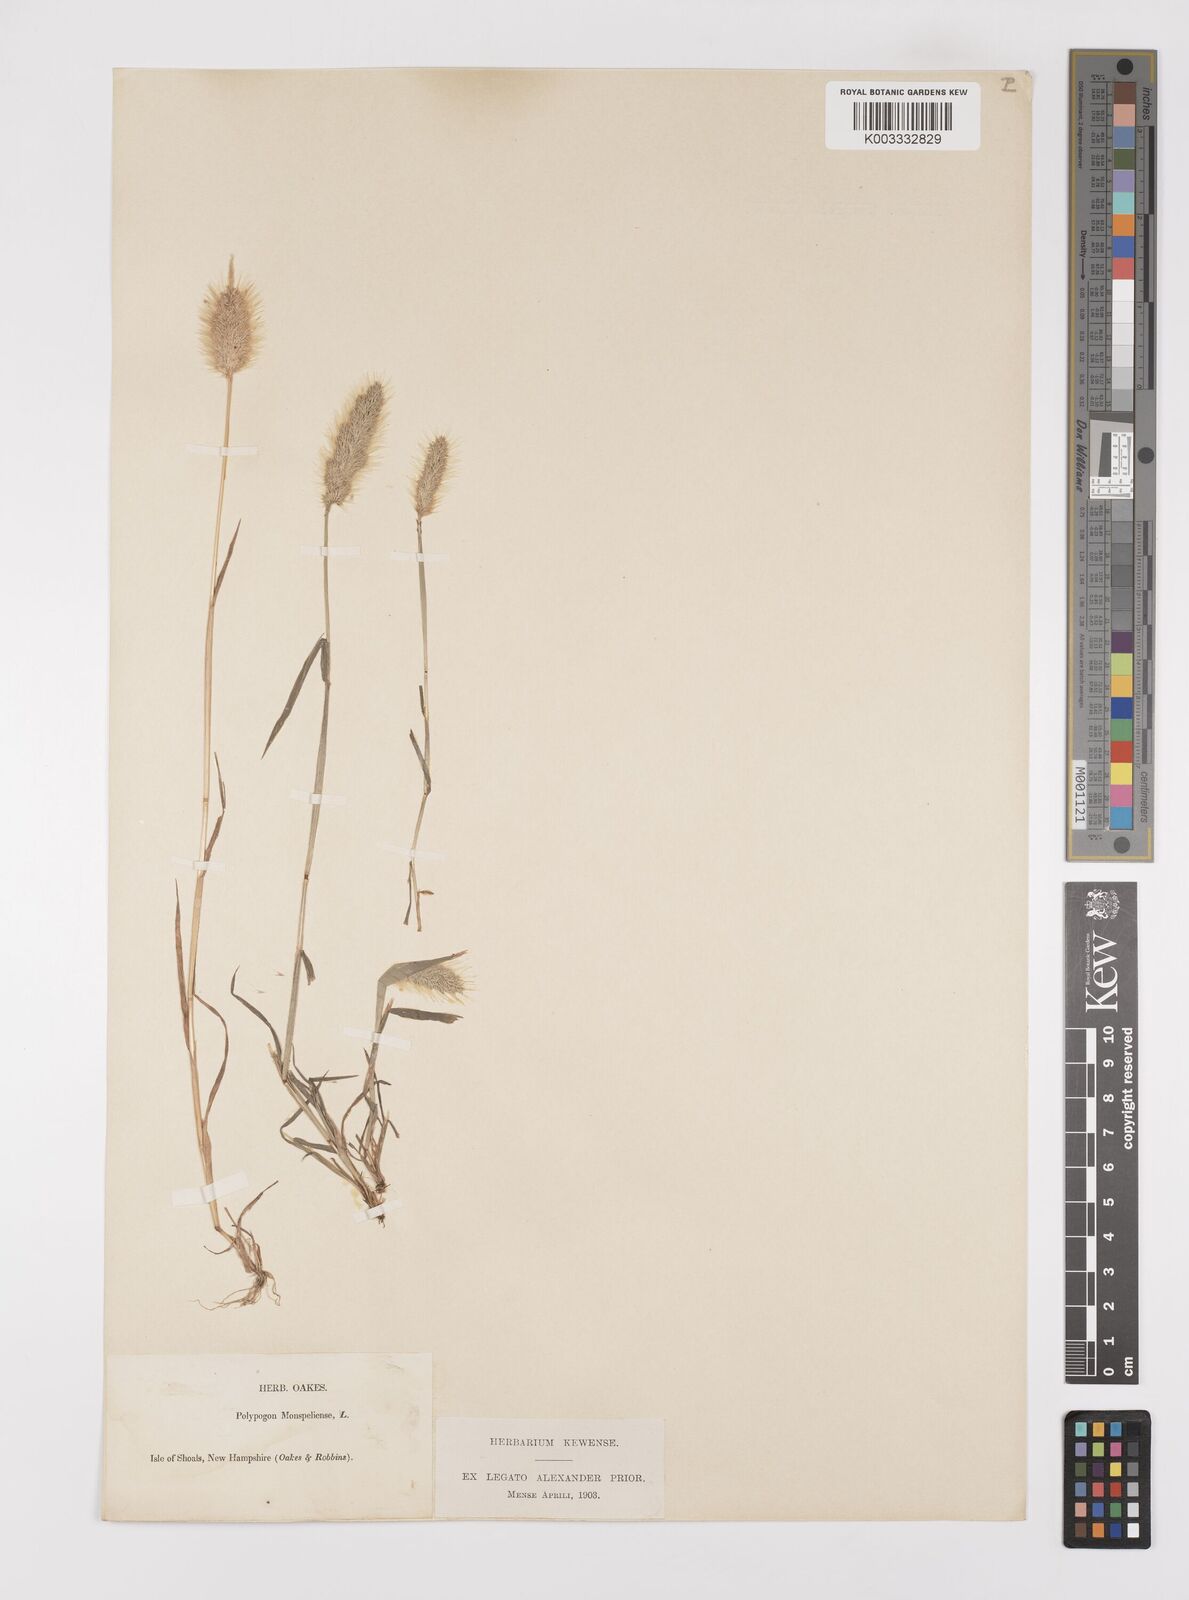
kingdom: Plantae
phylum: Tracheophyta
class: Liliopsida
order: Poales
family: Poaceae
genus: Polypogon
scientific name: Polypogon monspeliensis
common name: Annual rabbitsfoot grass
